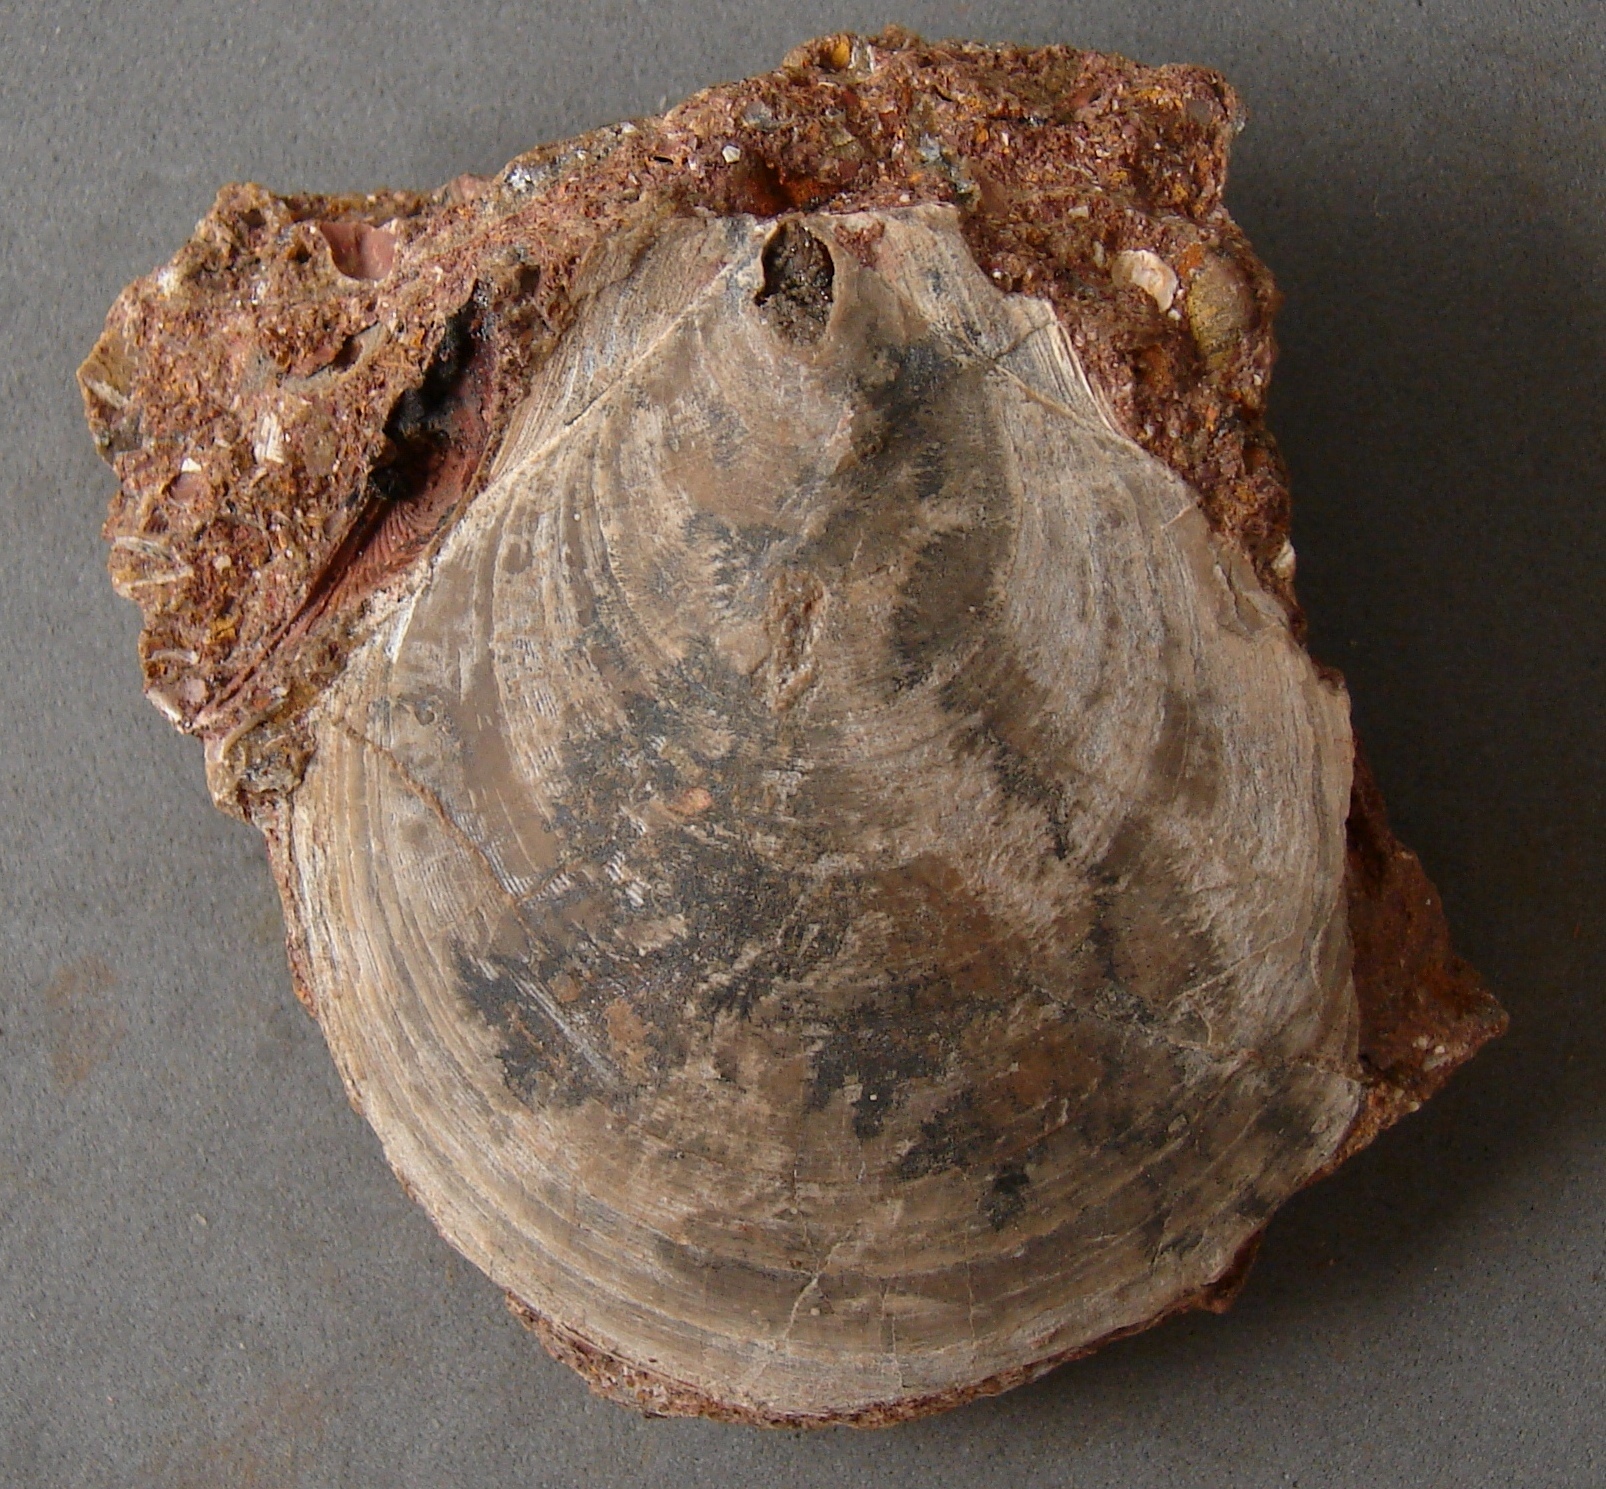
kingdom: Animalia
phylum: Mollusca
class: Bivalvia
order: Pectinida
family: Entoliidae
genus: Entolium
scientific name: Entolium corneolum
